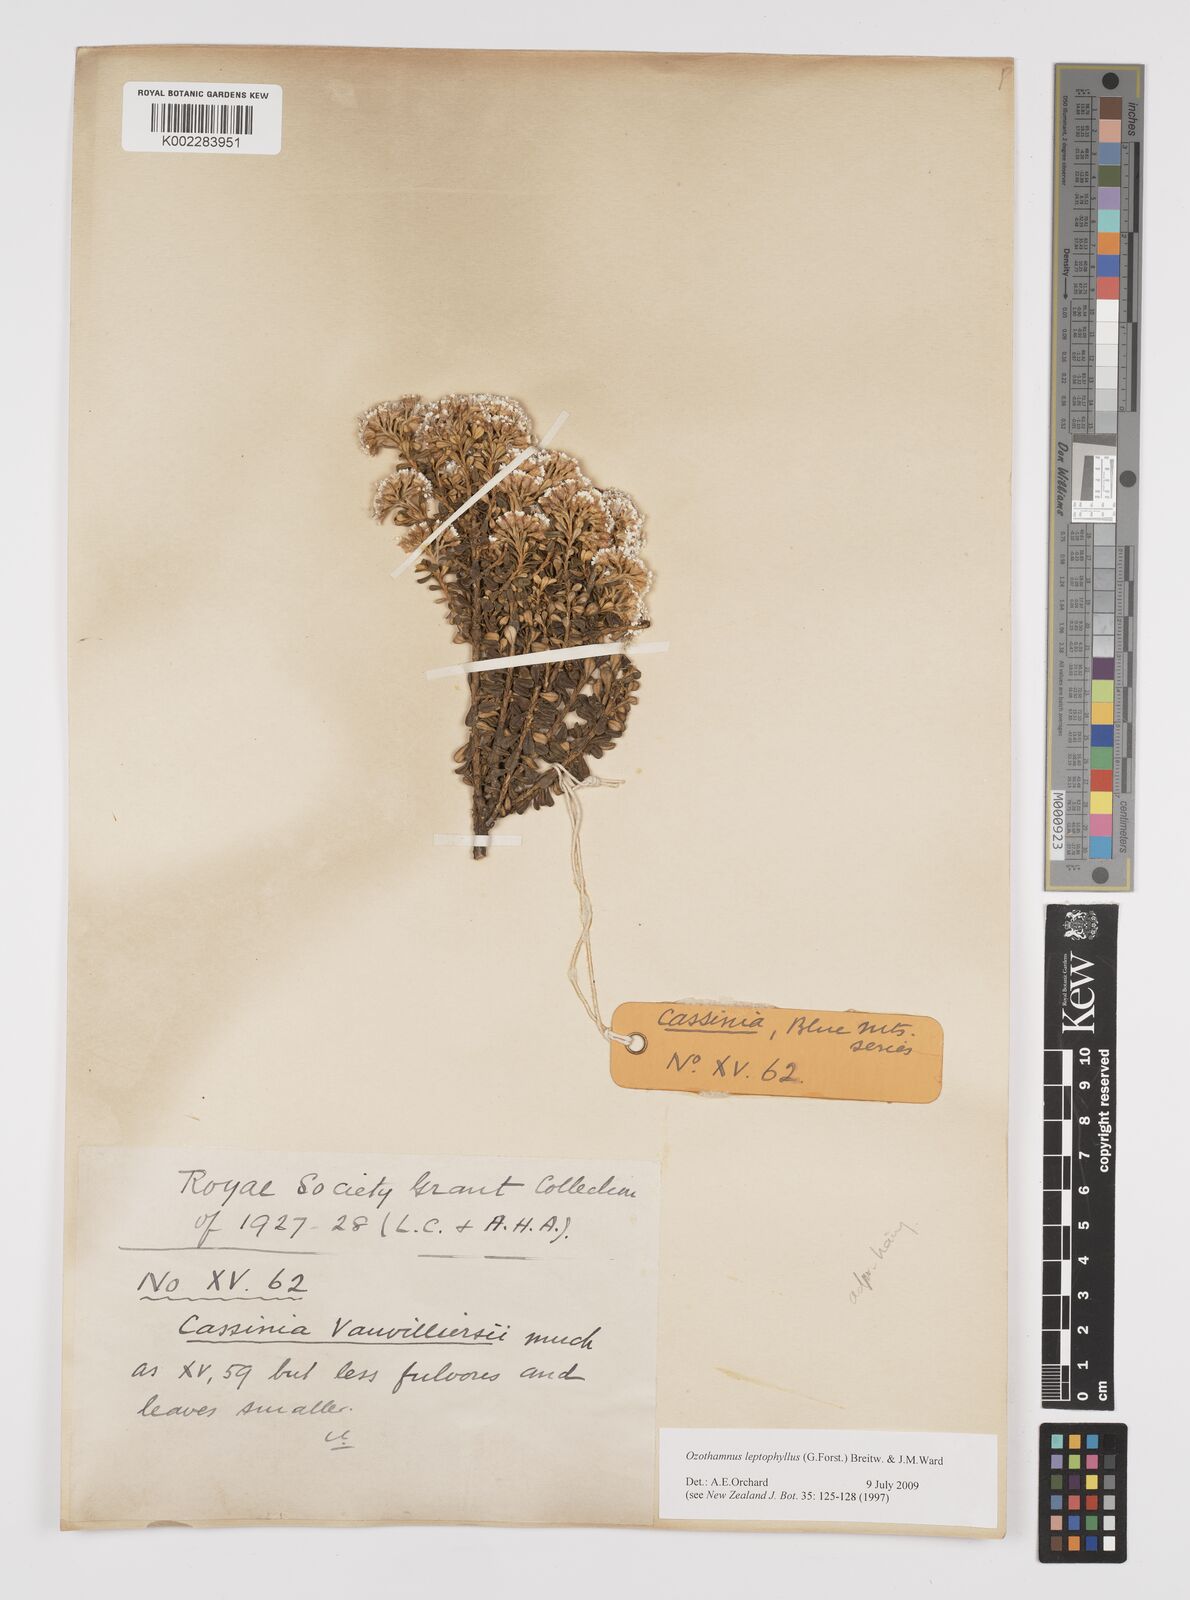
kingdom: Plantae
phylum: Tracheophyta
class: Magnoliopsida
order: Asterales
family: Asteraceae
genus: Ozothamnus
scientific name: Ozothamnus leptophyllus
